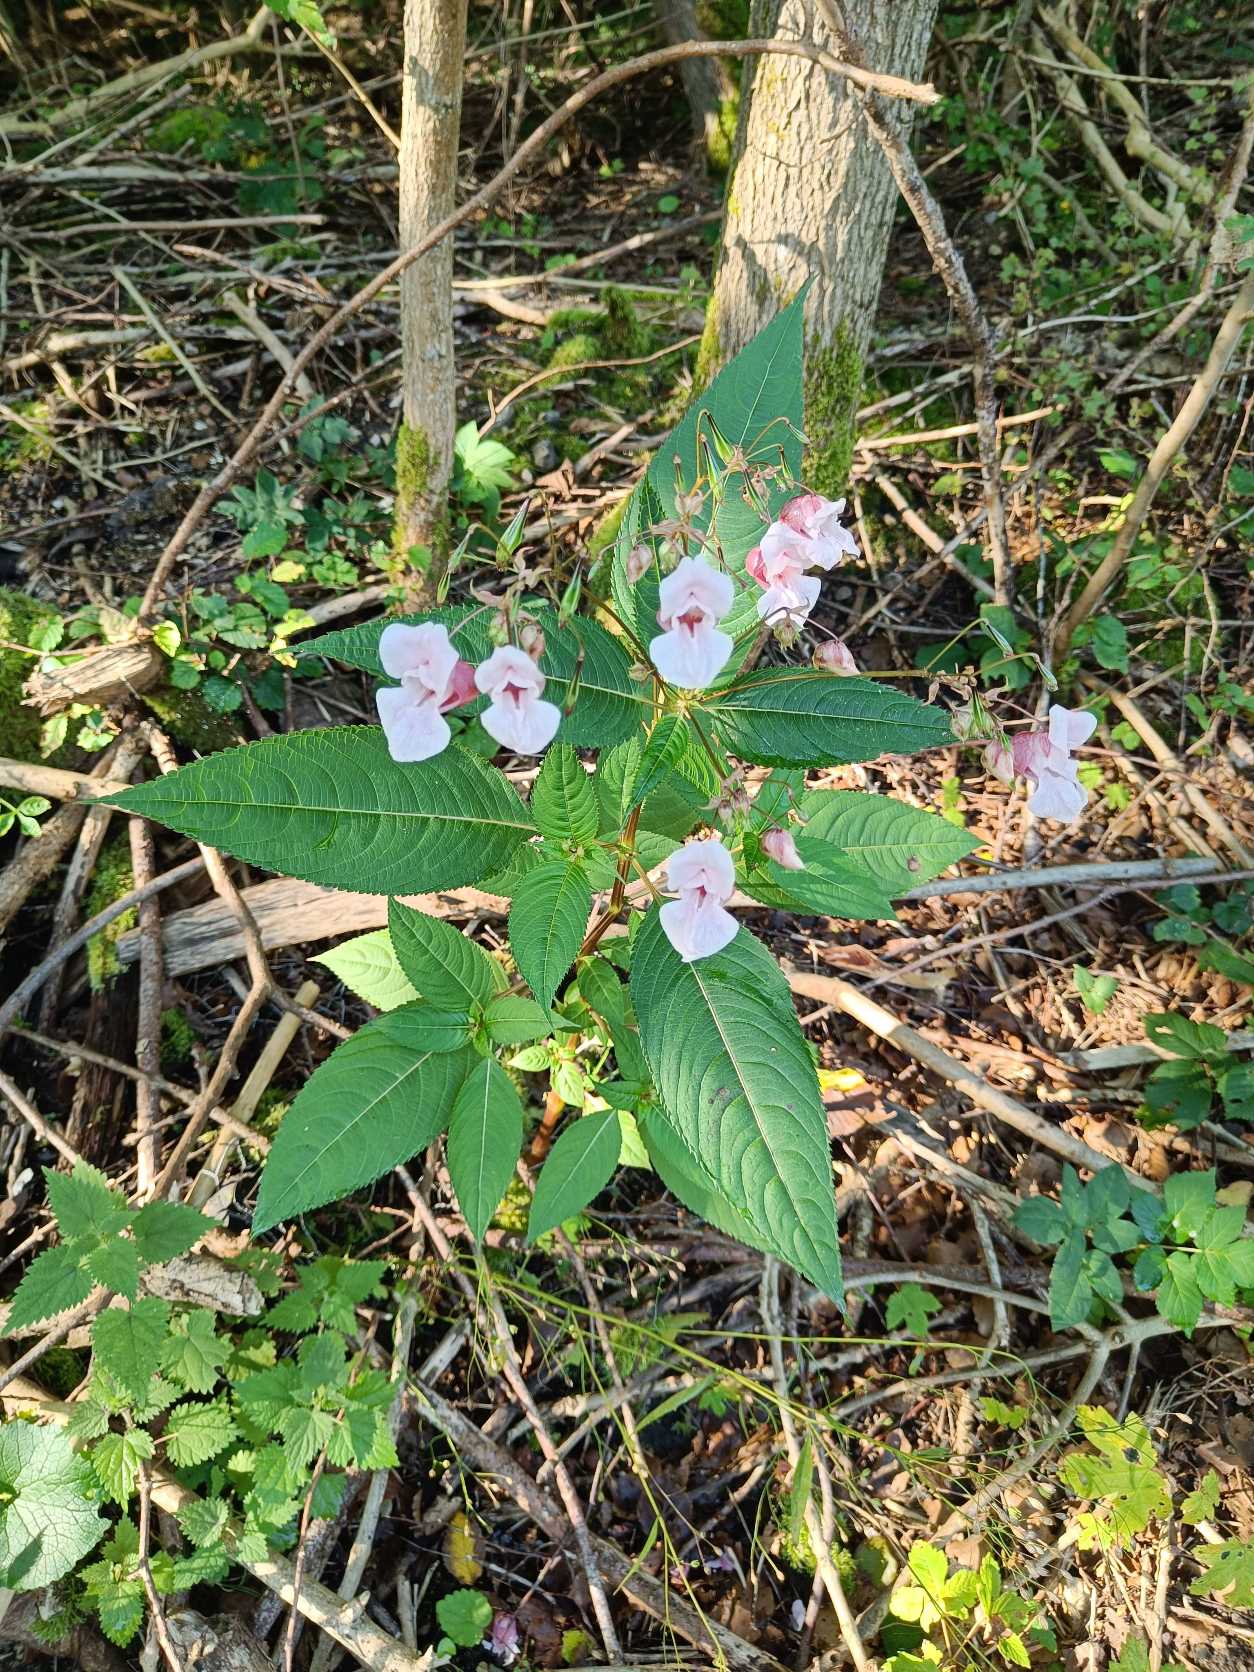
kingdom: Plantae
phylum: Tracheophyta
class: Magnoliopsida
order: Ericales
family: Balsaminaceae
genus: Impatiens
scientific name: Impatiens glandulifera
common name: Kæmpe-balsamin
